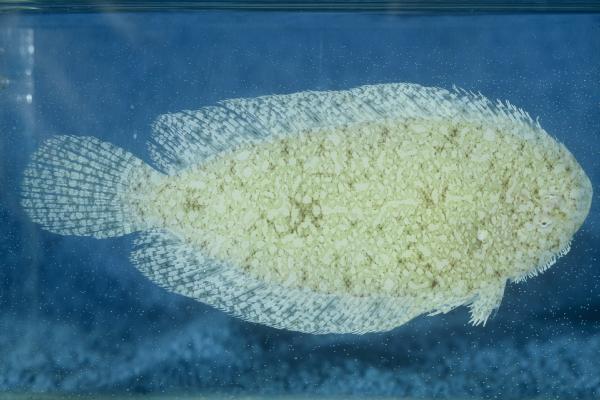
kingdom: Animalia
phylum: Chordata
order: Pleuronectiformes
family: Soleidae
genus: Aseraggodes
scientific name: Aseraggodes xenicus
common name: Dwarf sole
